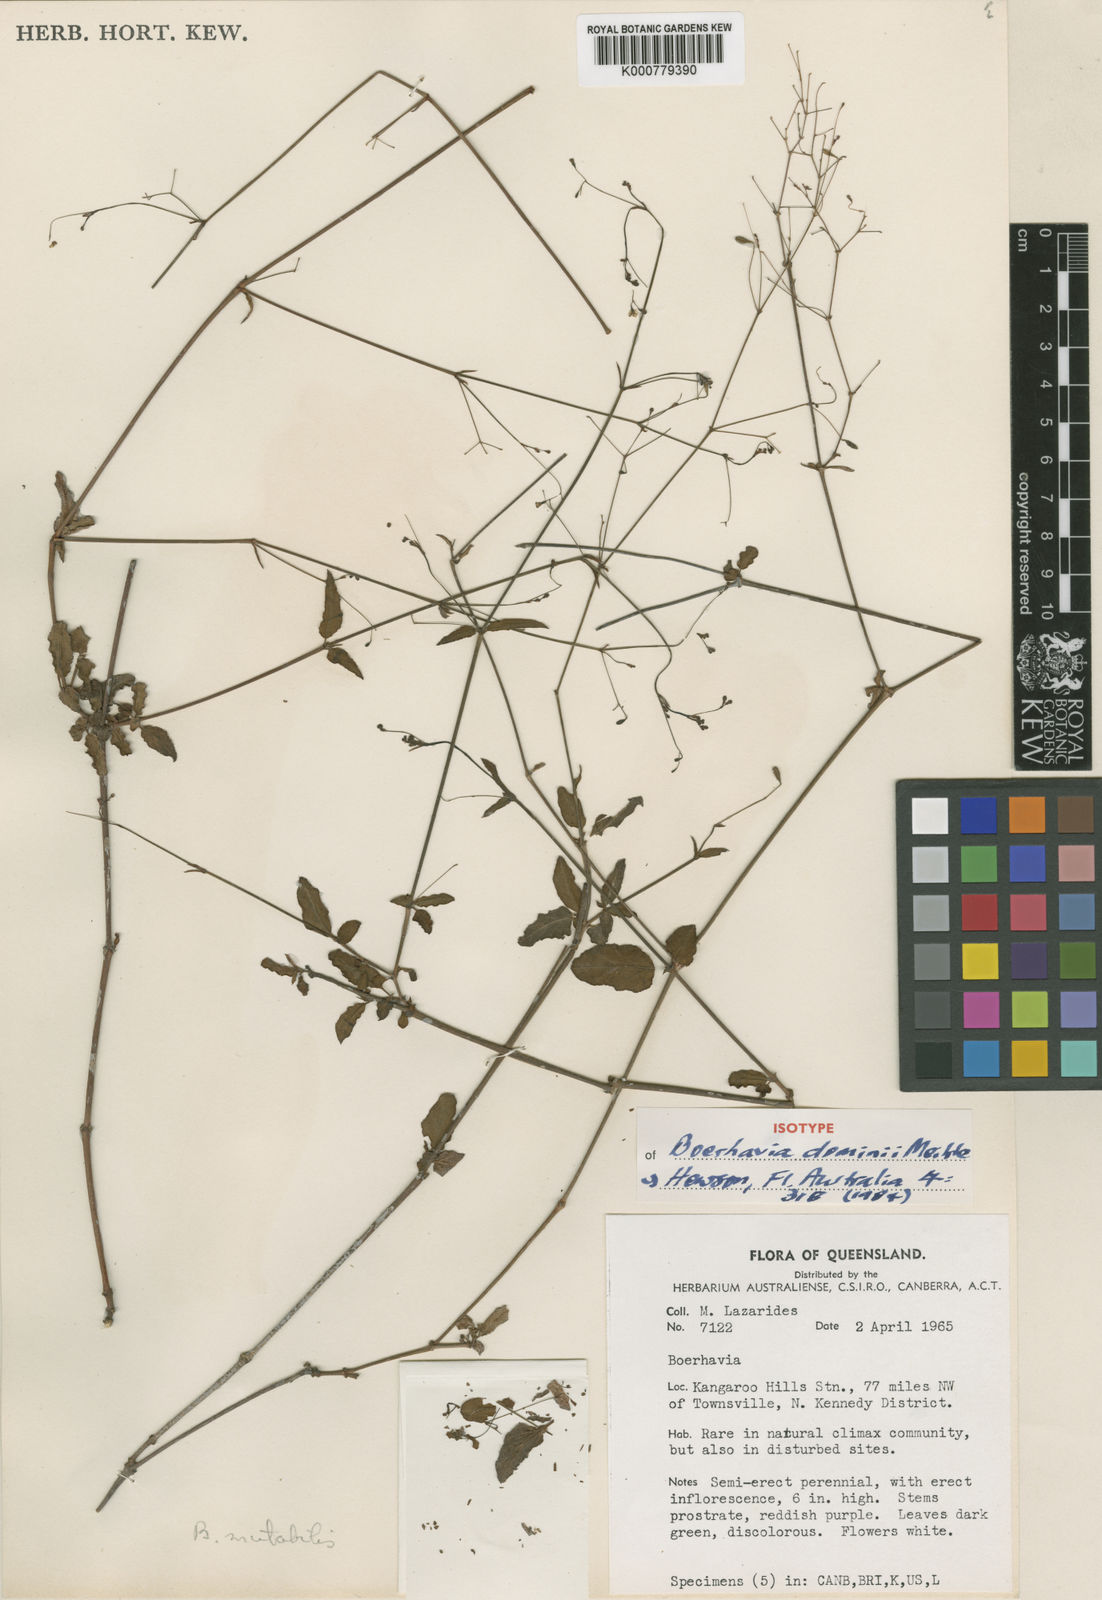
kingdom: Plantae
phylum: Tracheophyta
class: Magnoliopsida
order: Caryophyllales
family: Nyctaginaceae
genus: Boerhavia
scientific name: Boerhavia dominii
